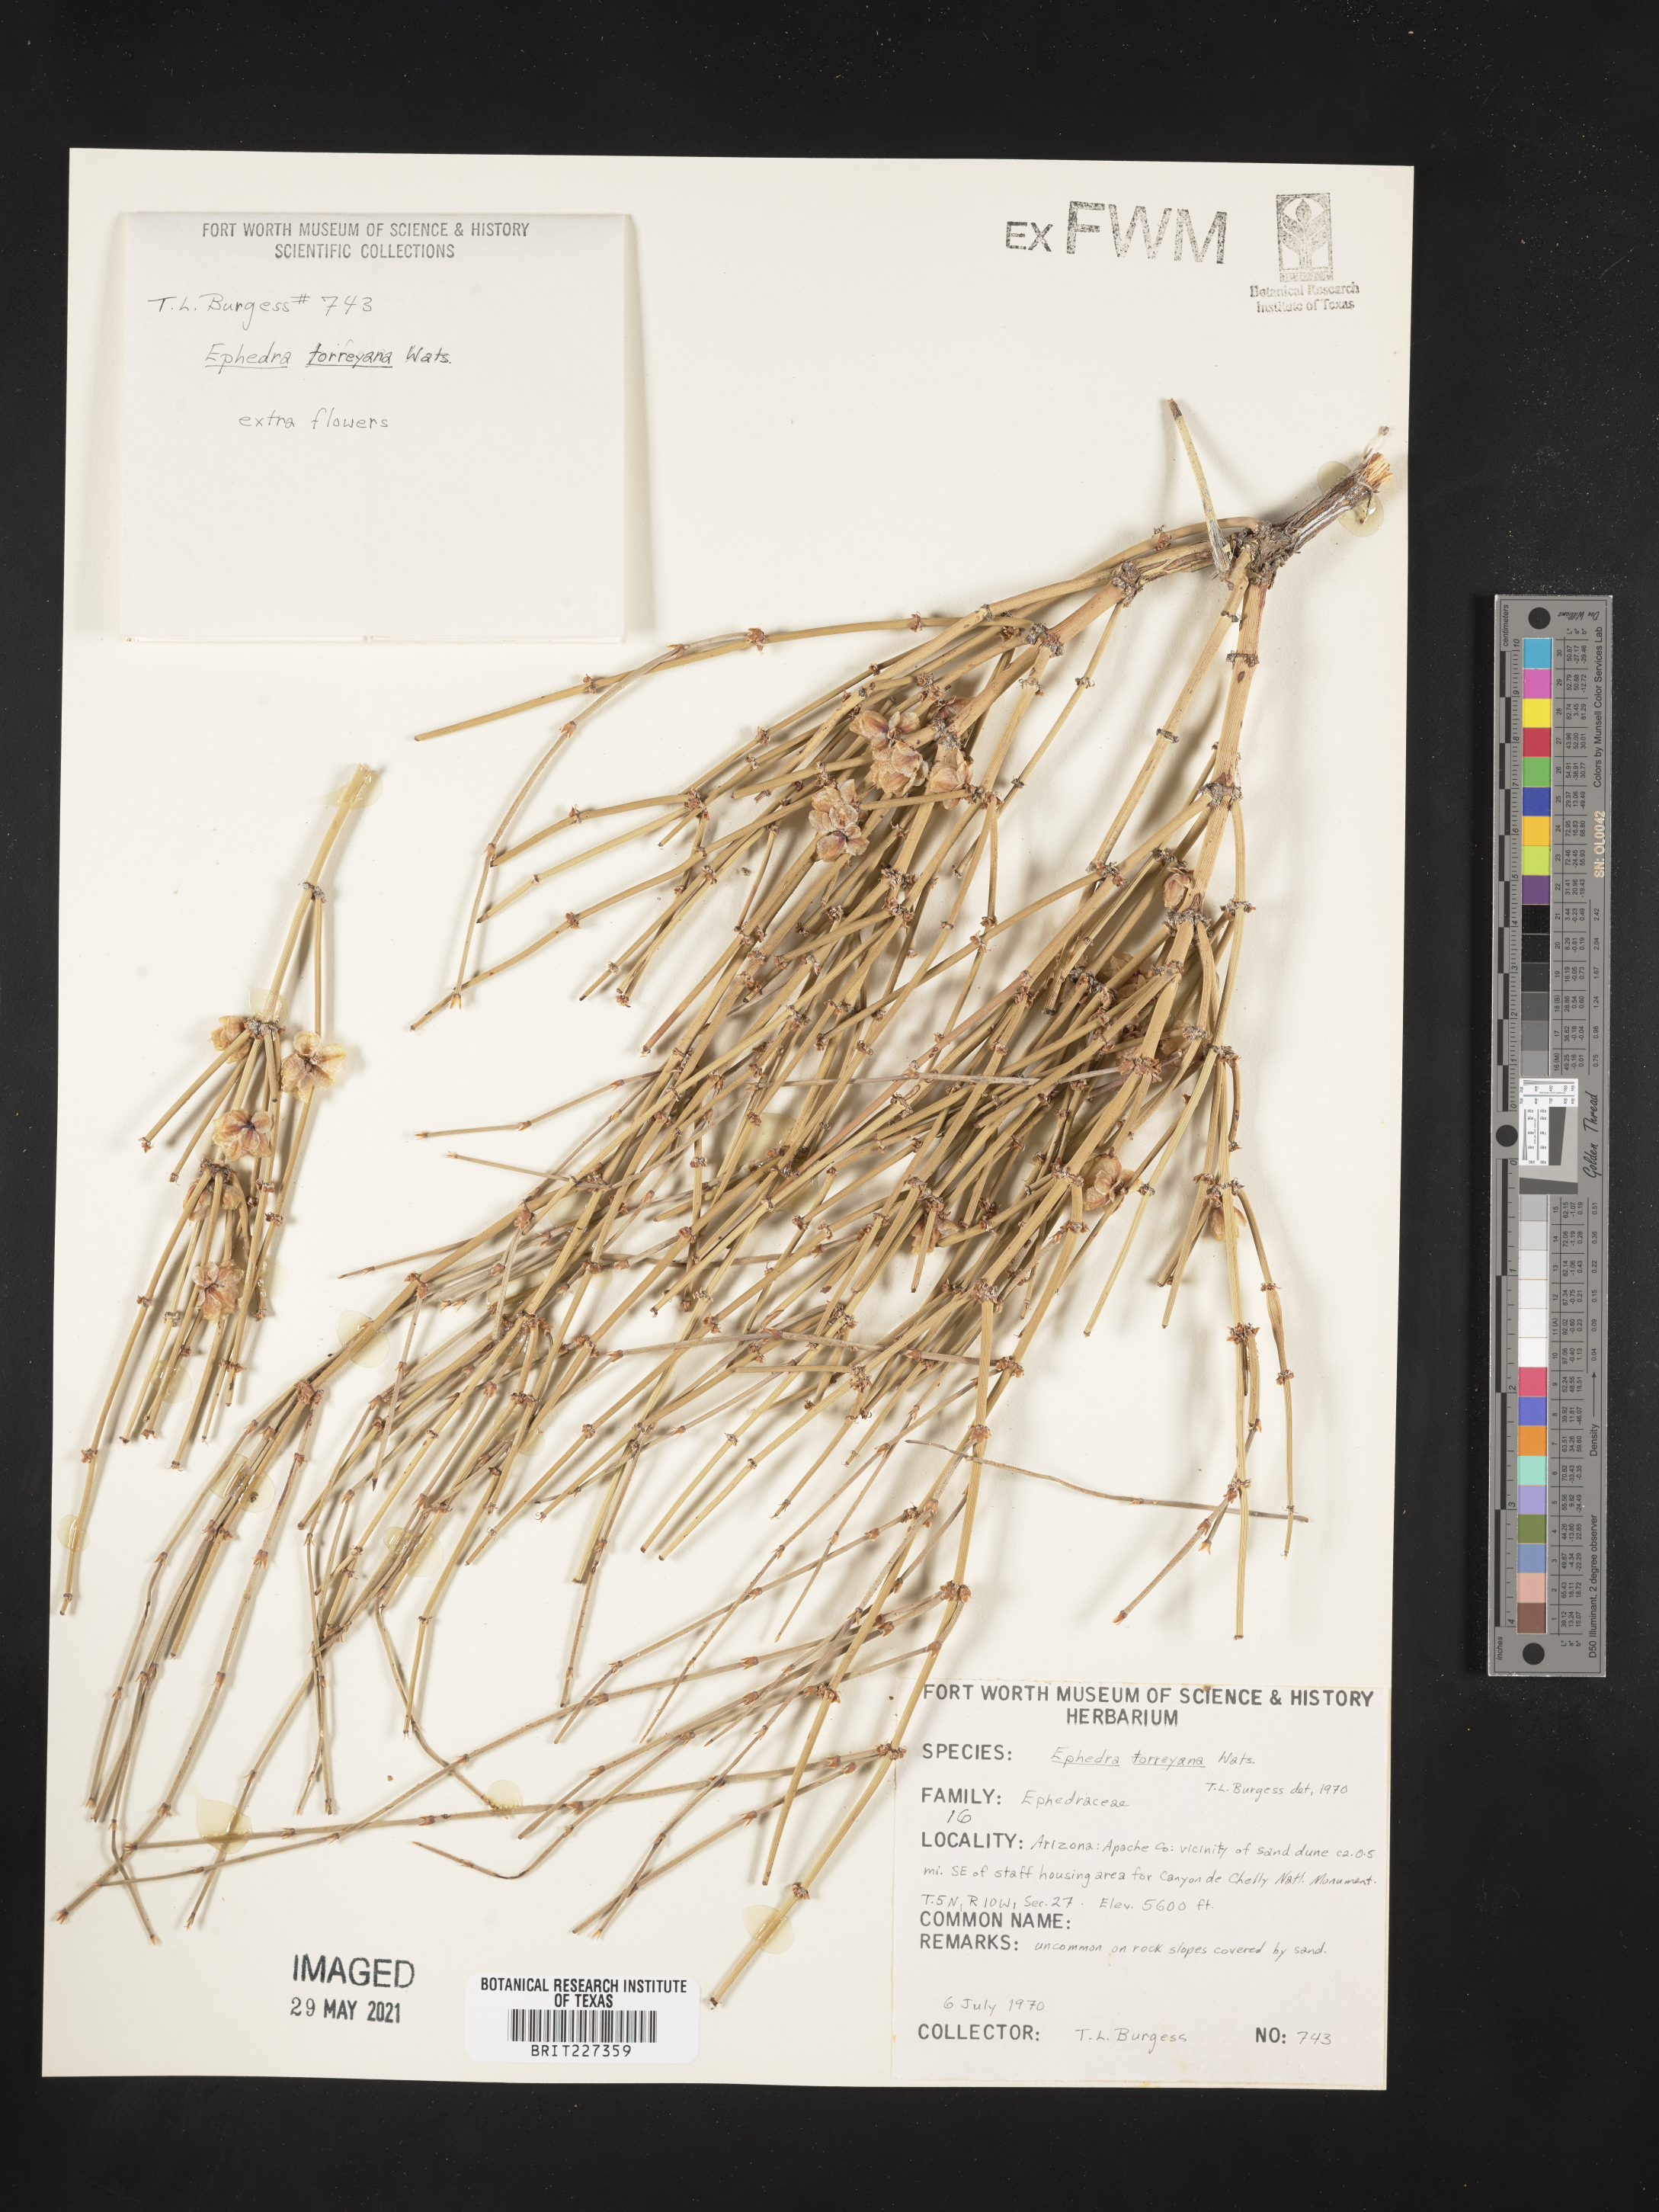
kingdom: Plantae
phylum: Tracheophyta
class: Gnetopsida
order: Ephedrales
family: Ephedraceae
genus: Ephedra
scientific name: Ephedra torreyana
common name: Torrey ephedra
